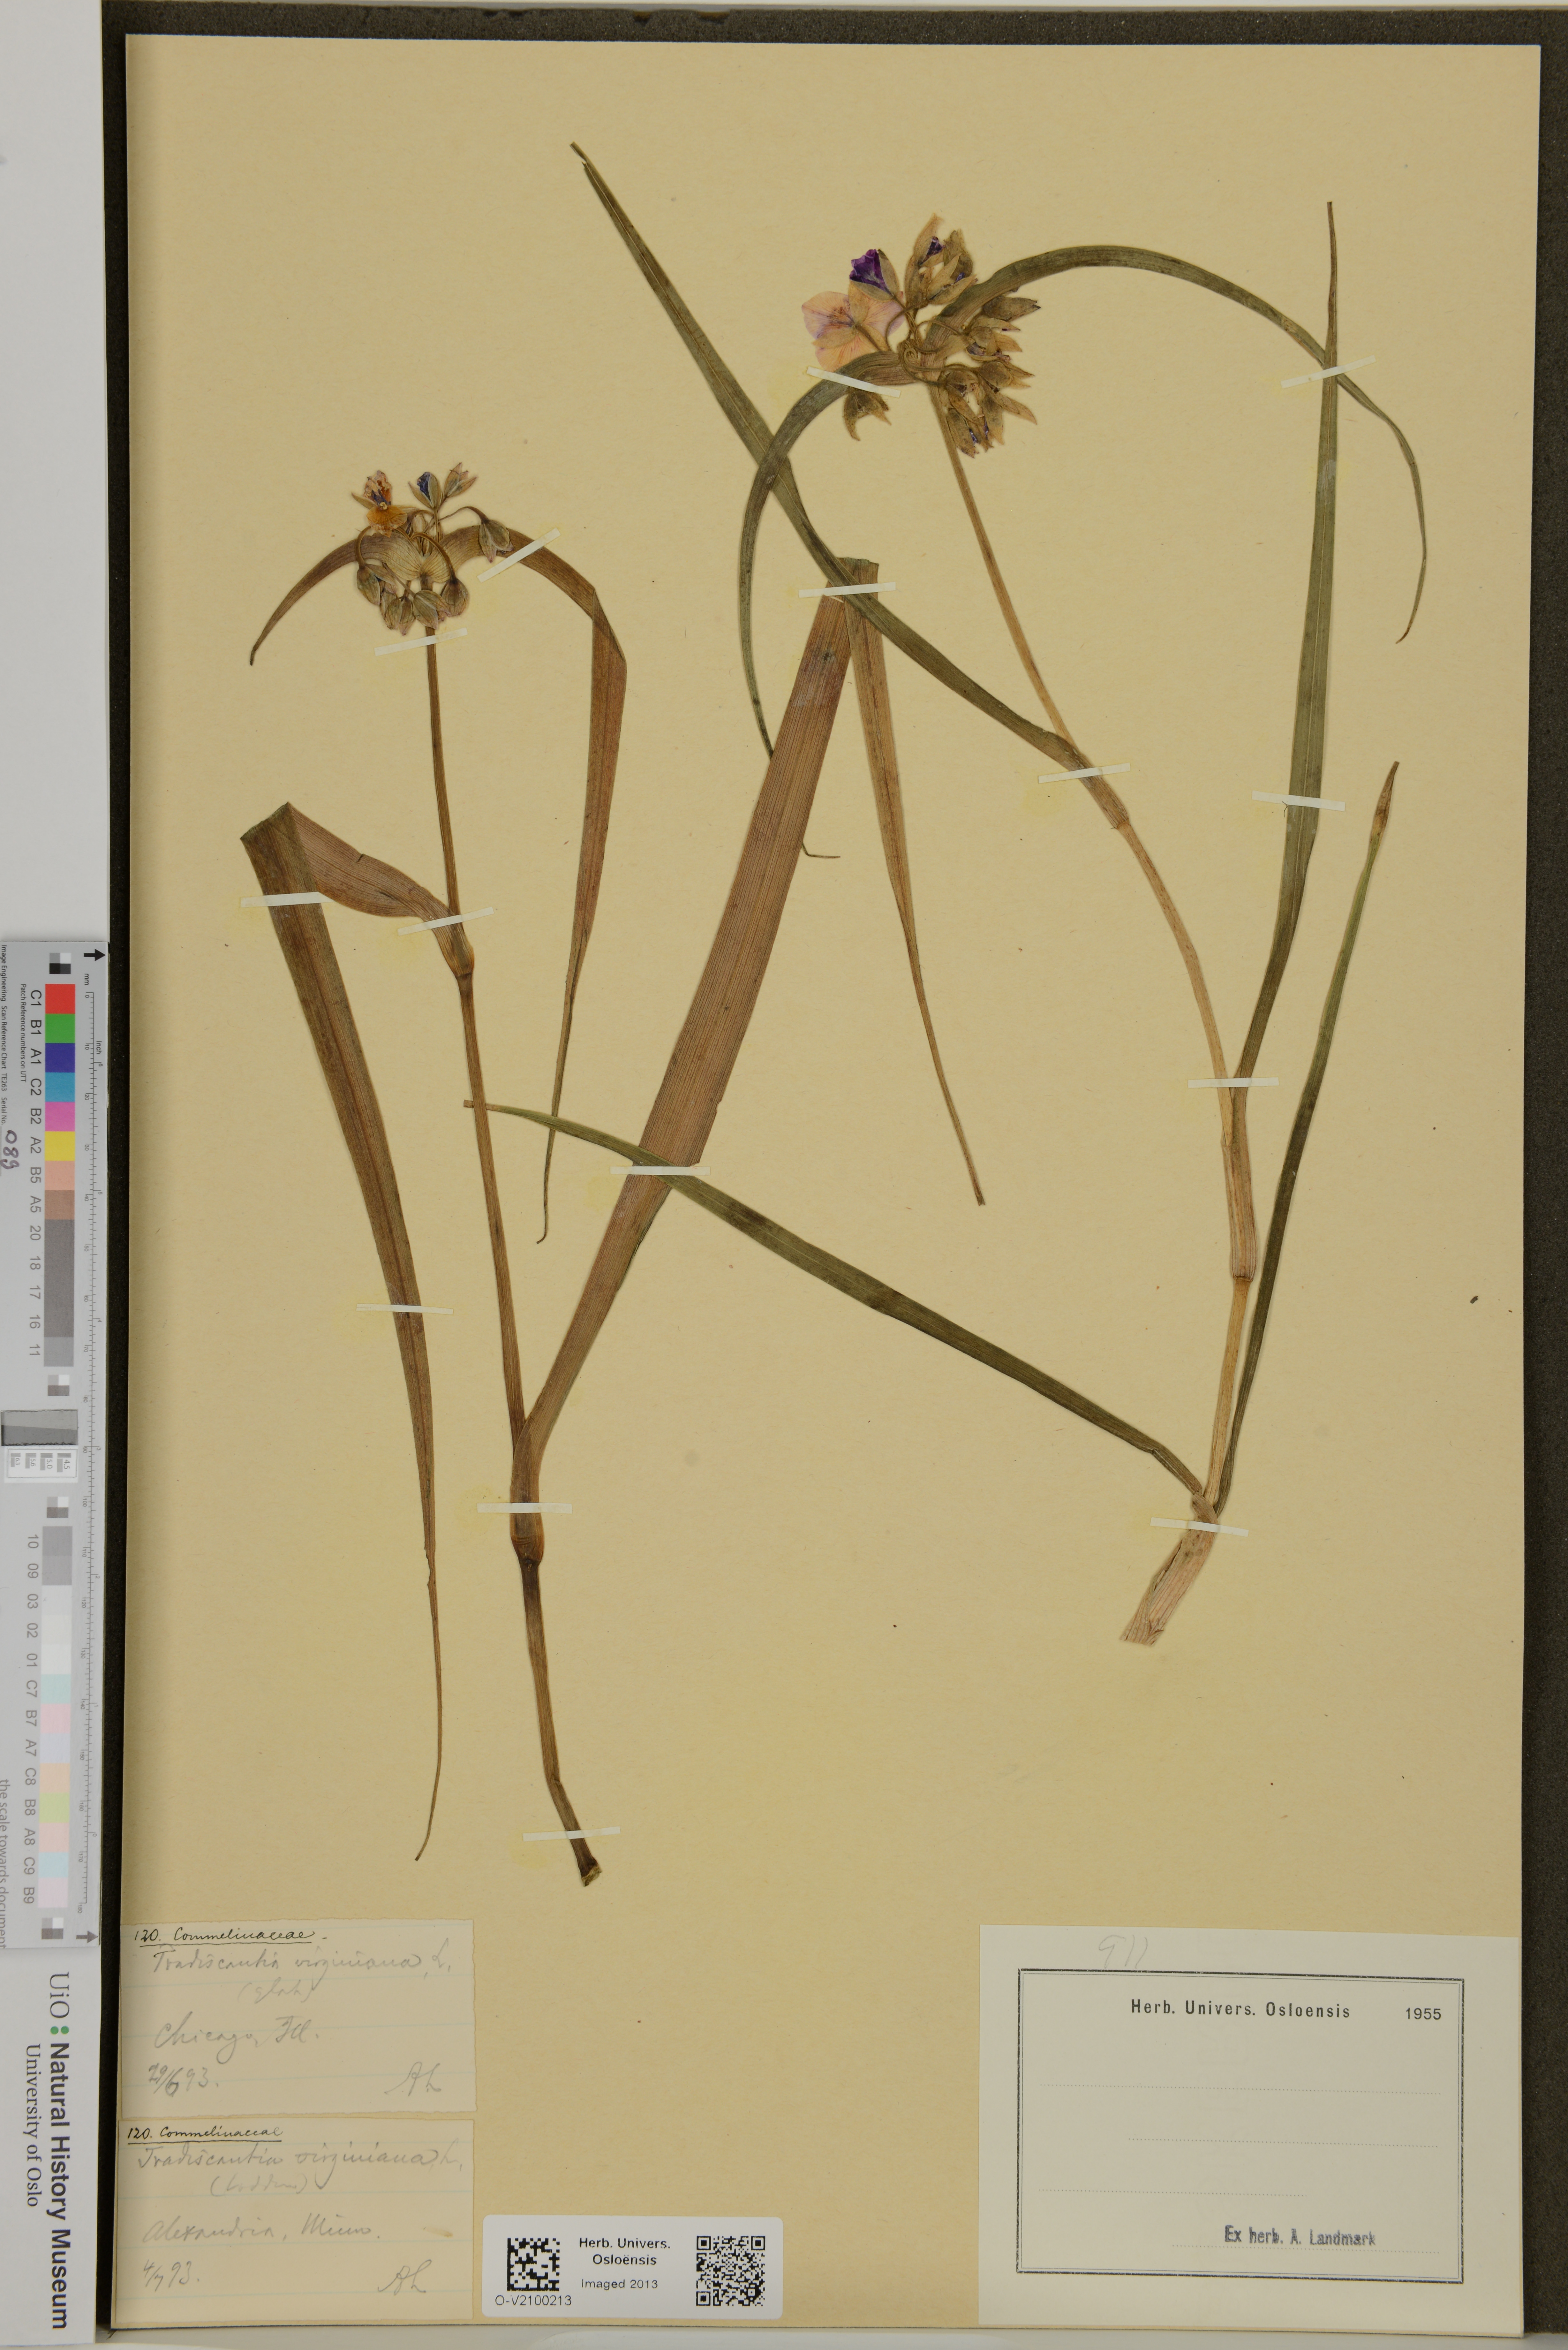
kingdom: Plantae
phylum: Tracheophyta
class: Liliopsida
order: Commelinales
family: Commelinaceae
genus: Tradescantia
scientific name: Tradescantia virginiana
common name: Spiderwort
